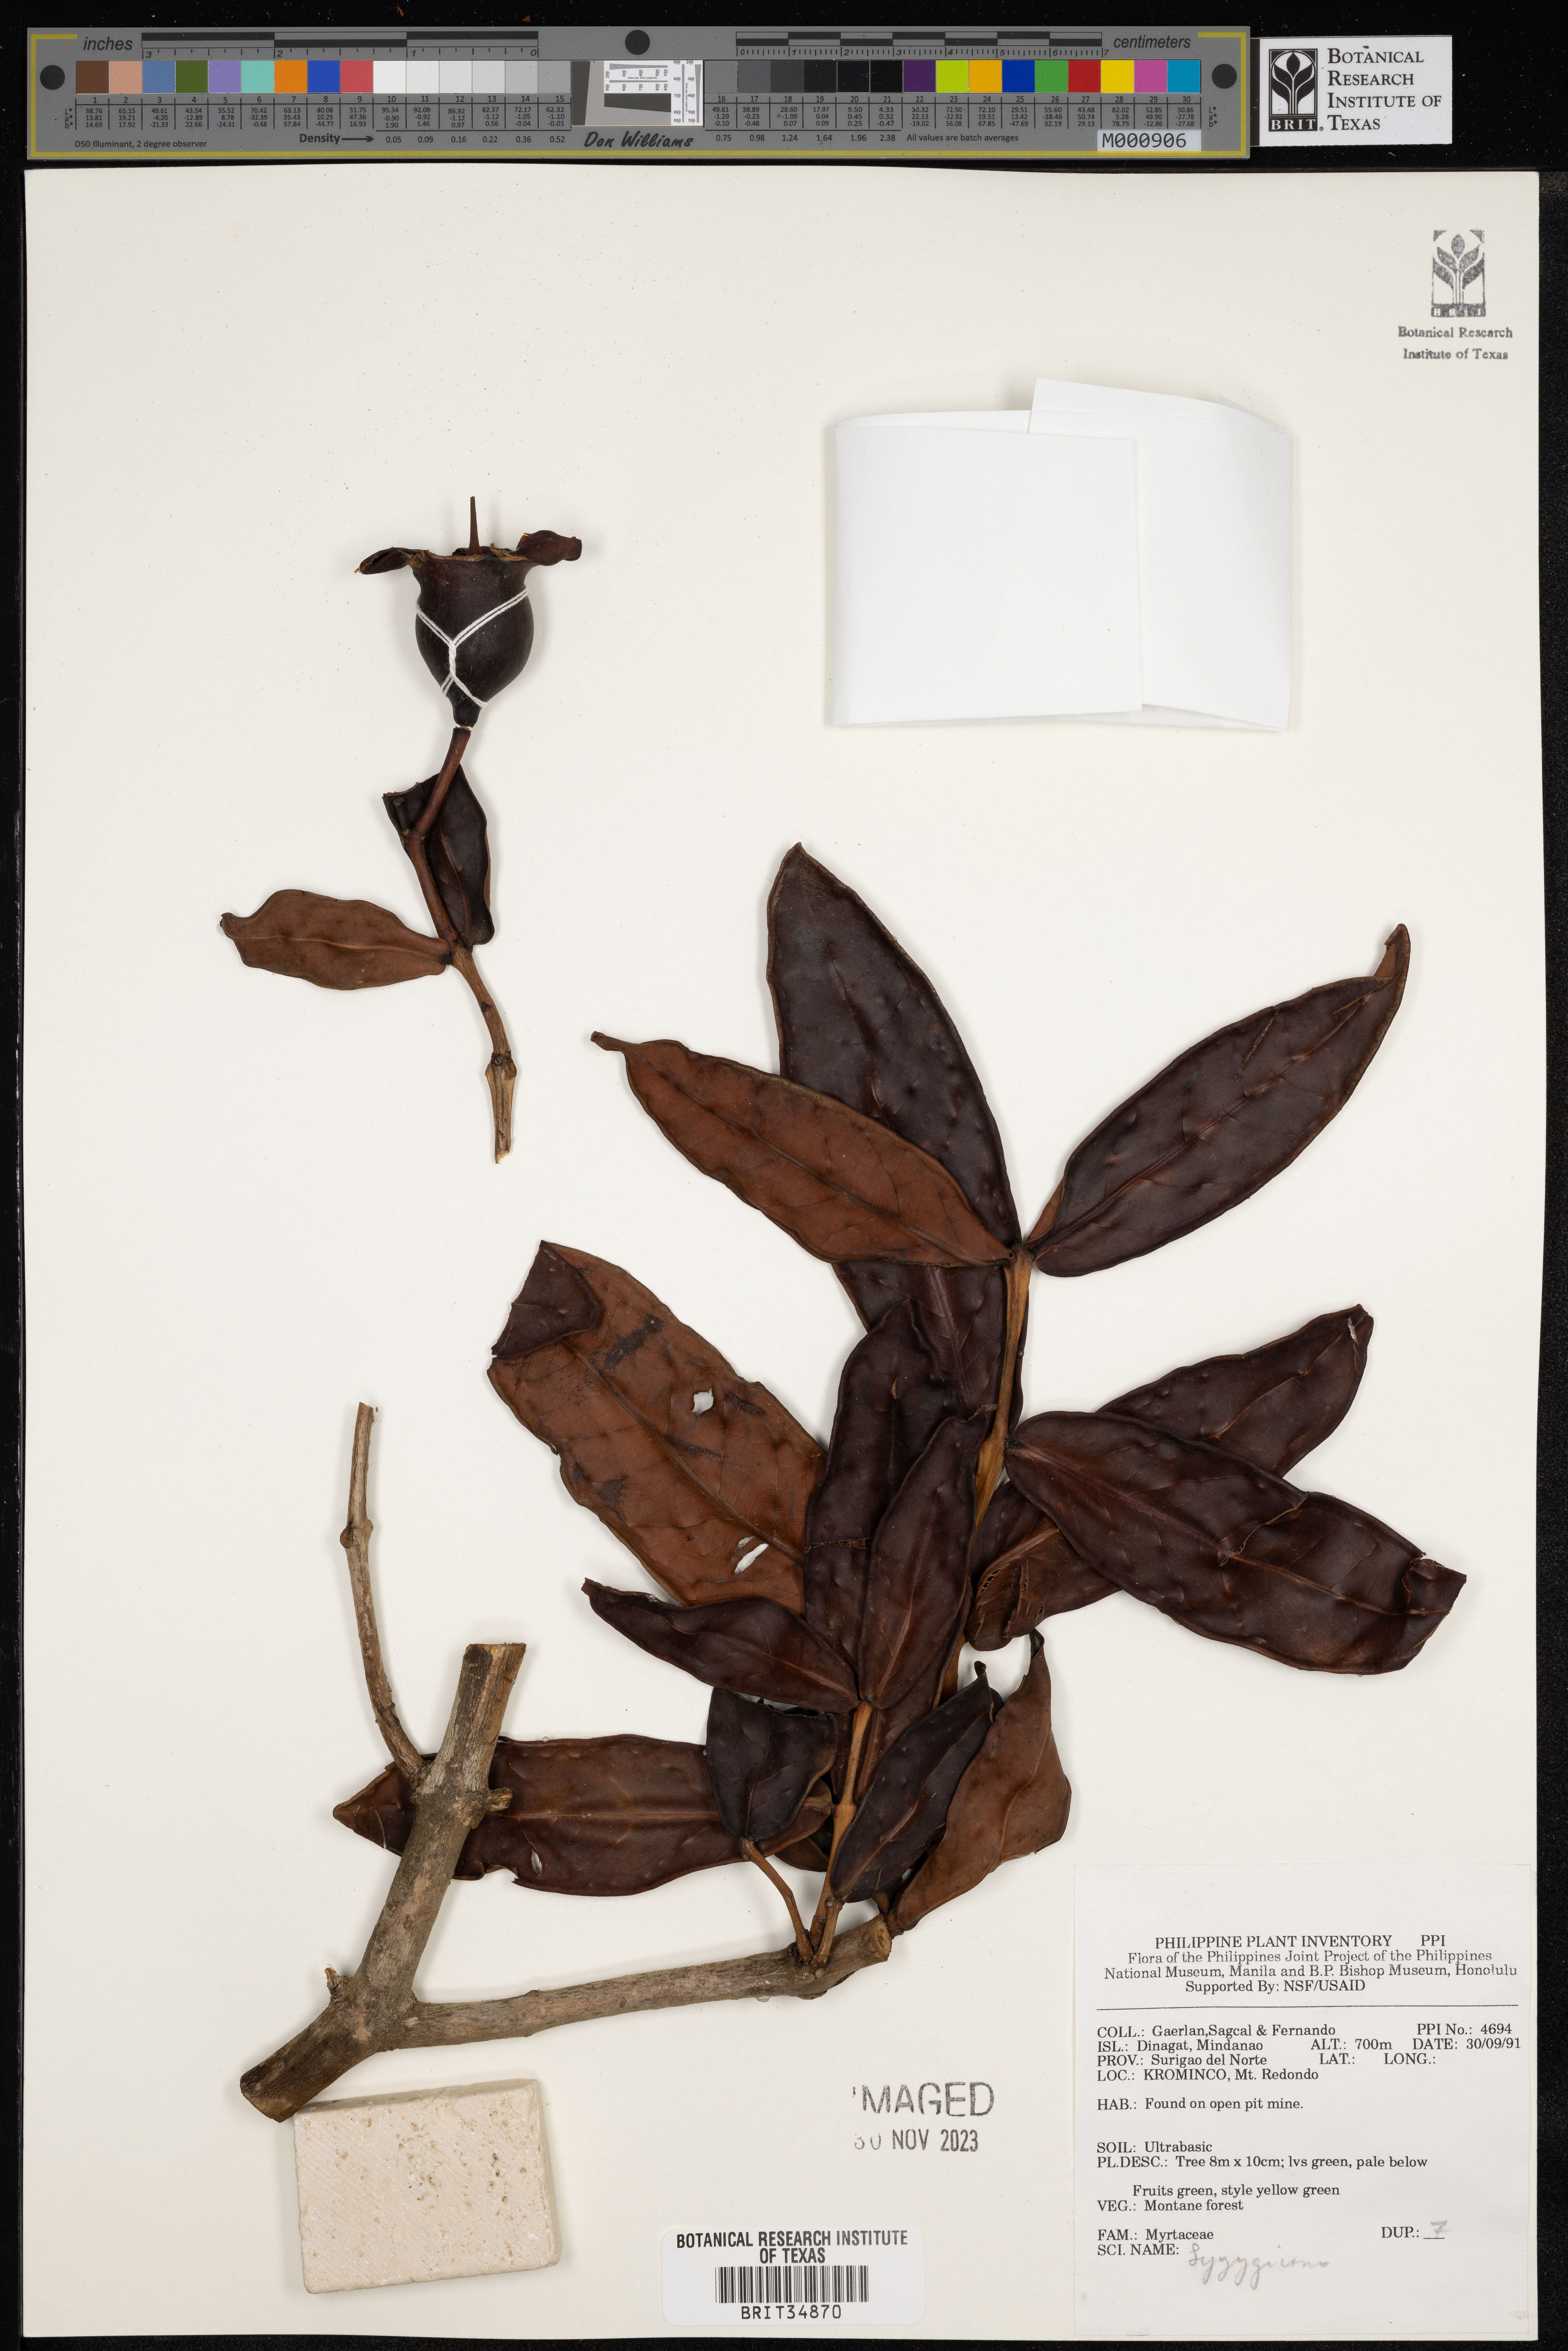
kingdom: Plantae
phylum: Tracheophyta
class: Magnoliopsida
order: Myrtales
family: Myrtaceae
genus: Syzygium
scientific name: Syzygium
